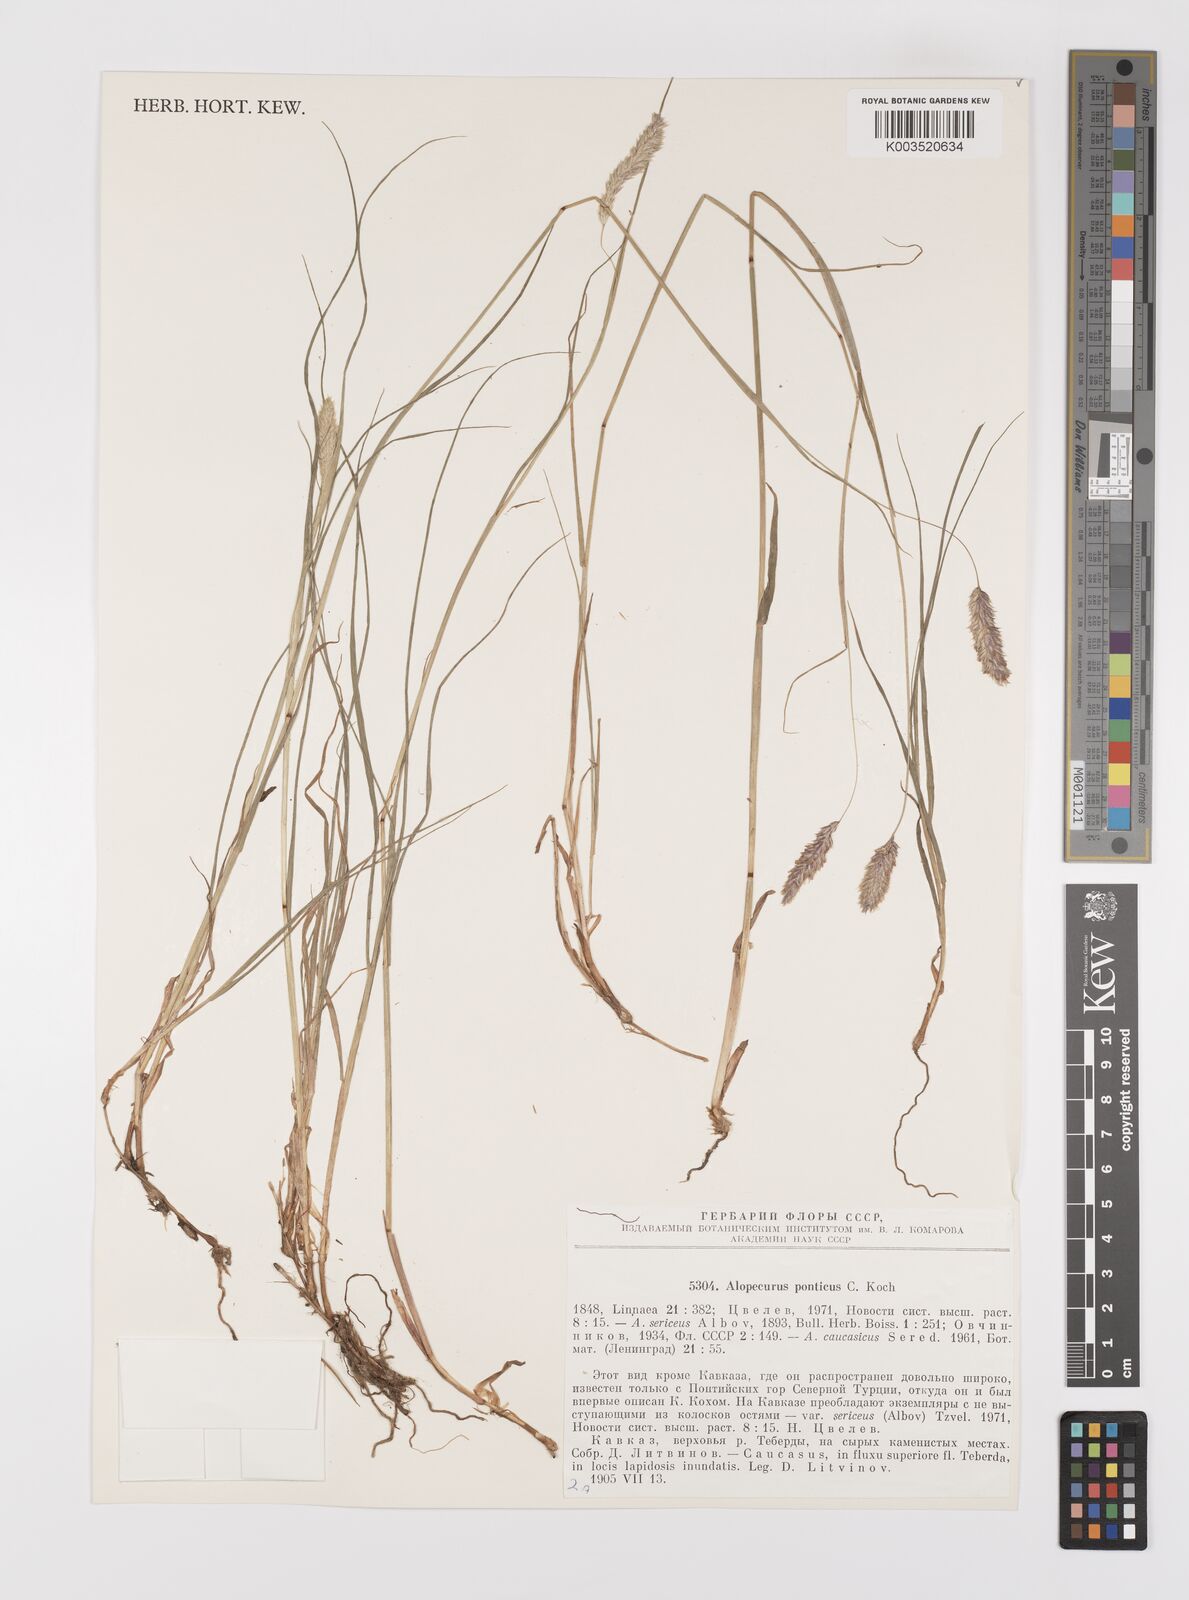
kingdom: Plantae
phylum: Tracheophyta
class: Liliopsida
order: Poales
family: Poaceae
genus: Alopecurus
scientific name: Alopecurus ponticus
